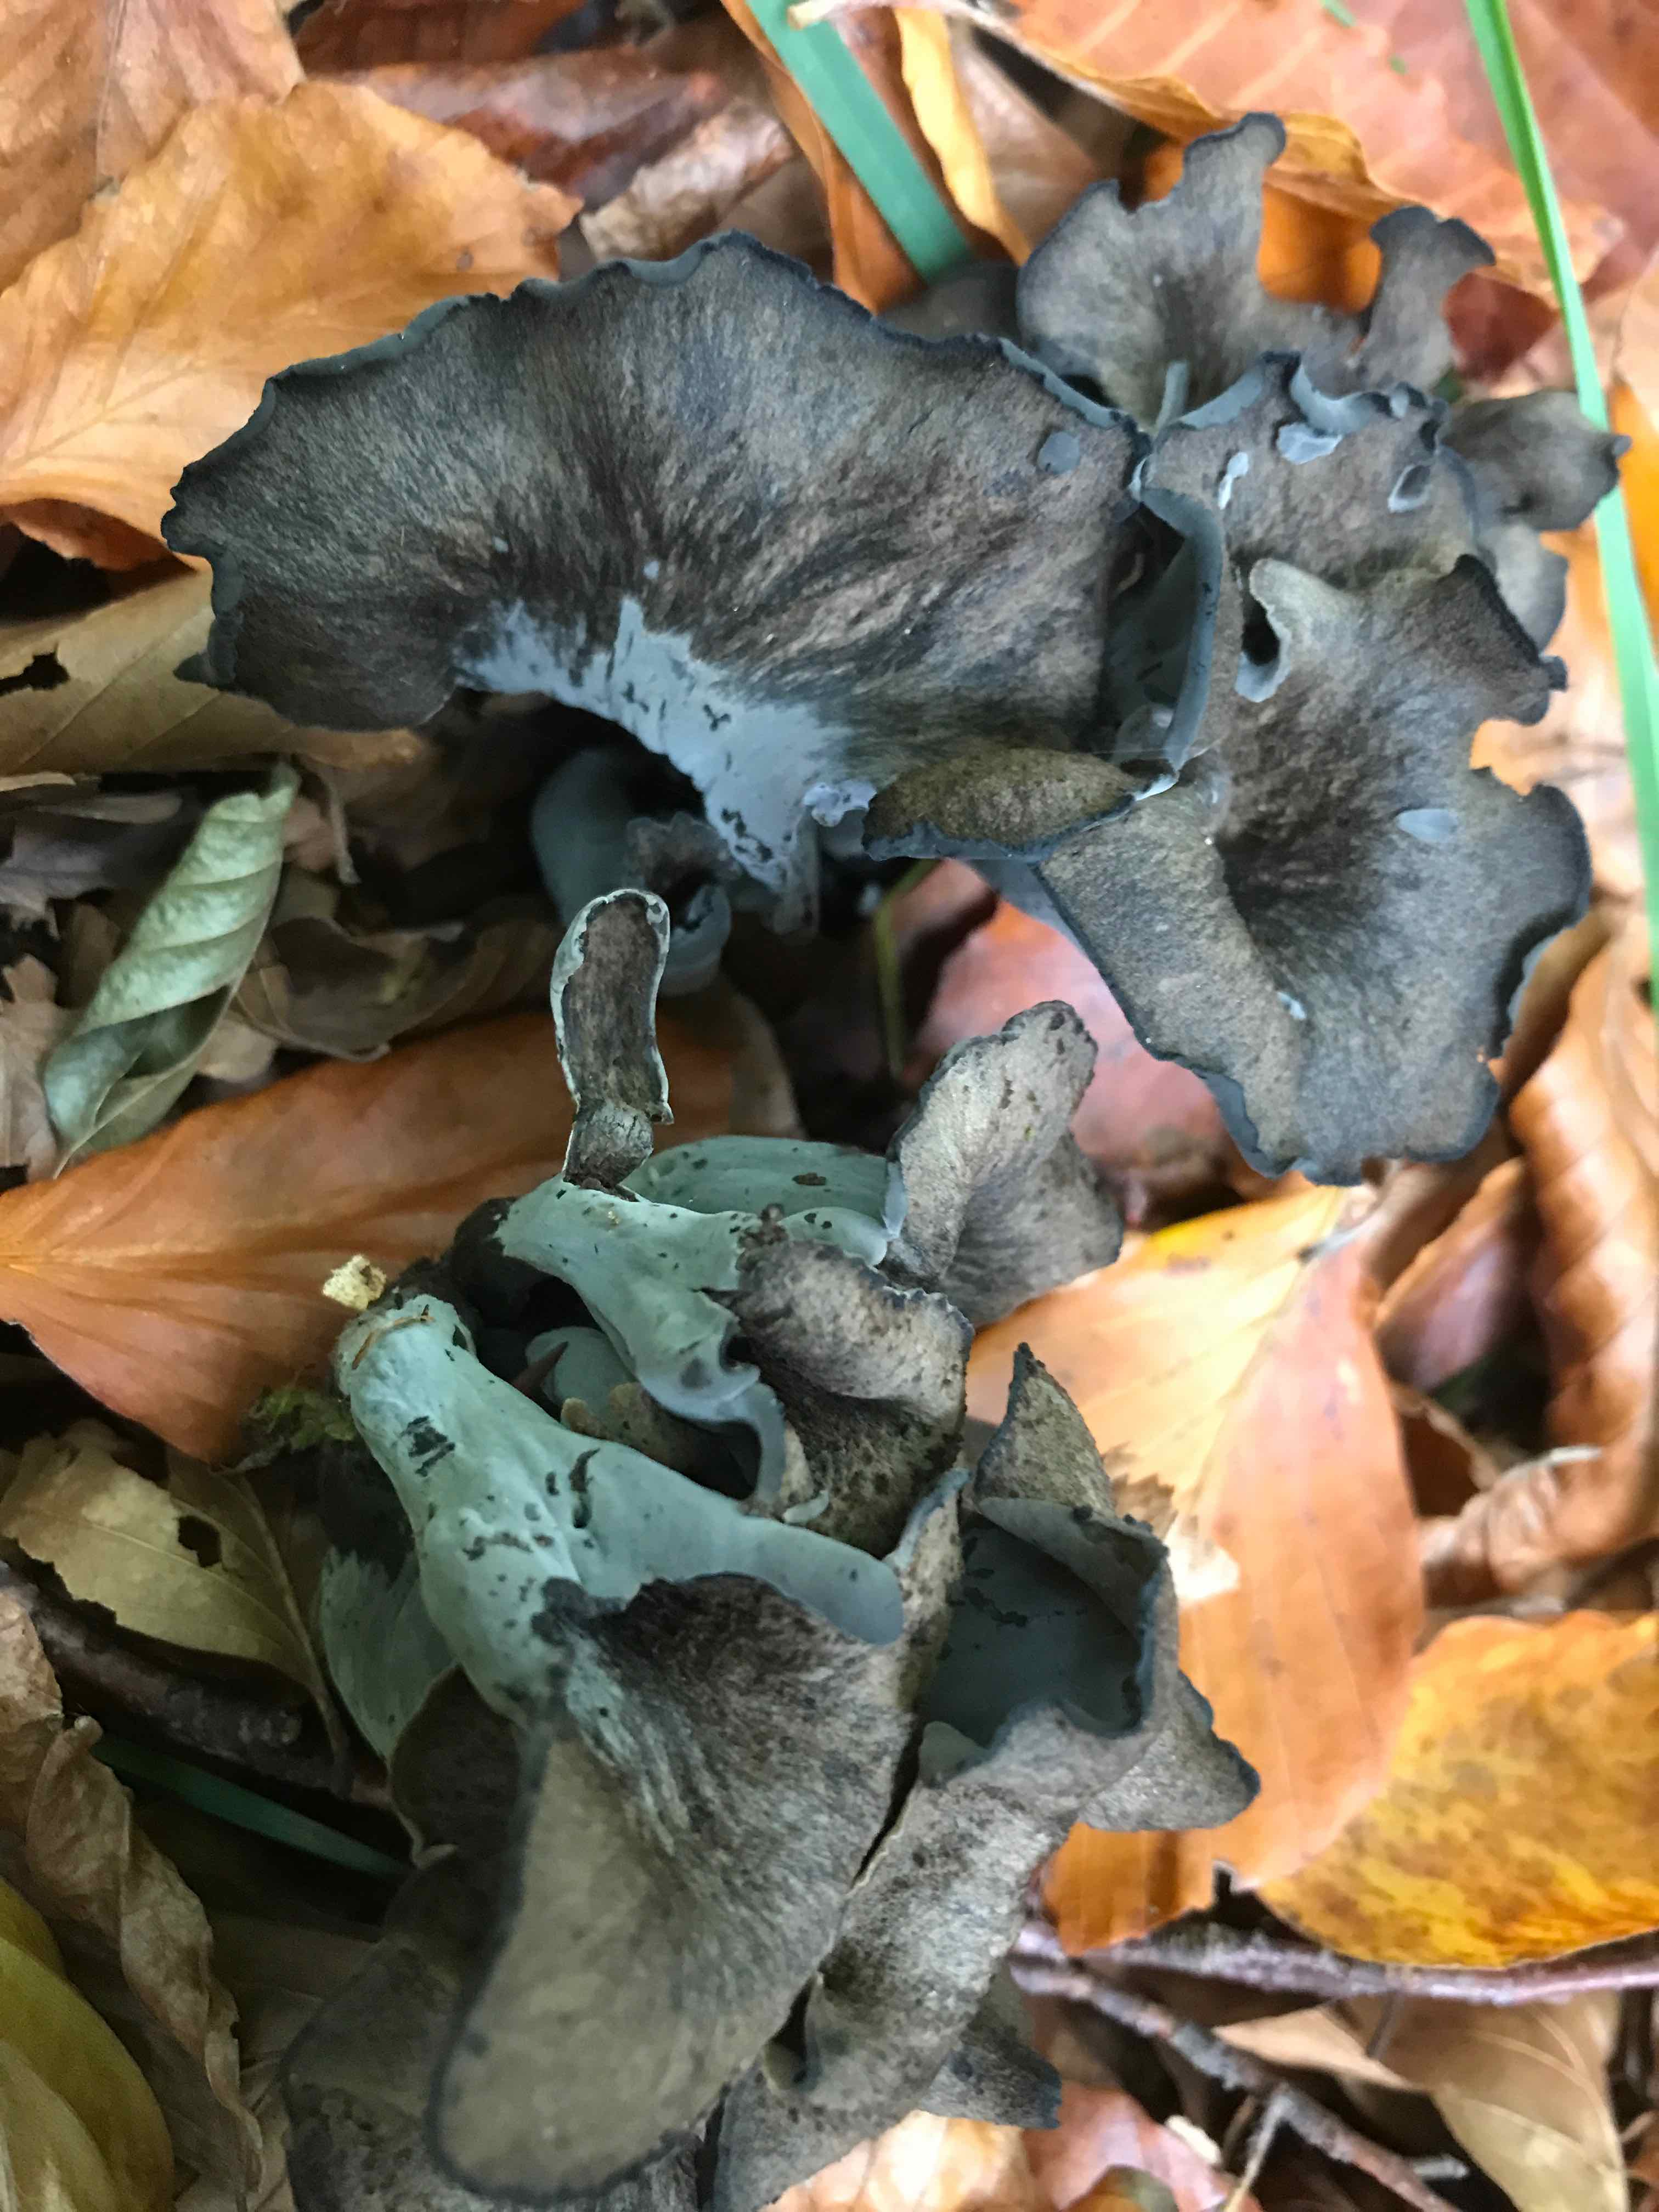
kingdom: Fungi
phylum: Basidiomycota
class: Agaricomycetes
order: Cantharellales
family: Hydnaceae
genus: Craterellus
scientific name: Craterellus cornucopioides
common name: trompetsvamp
